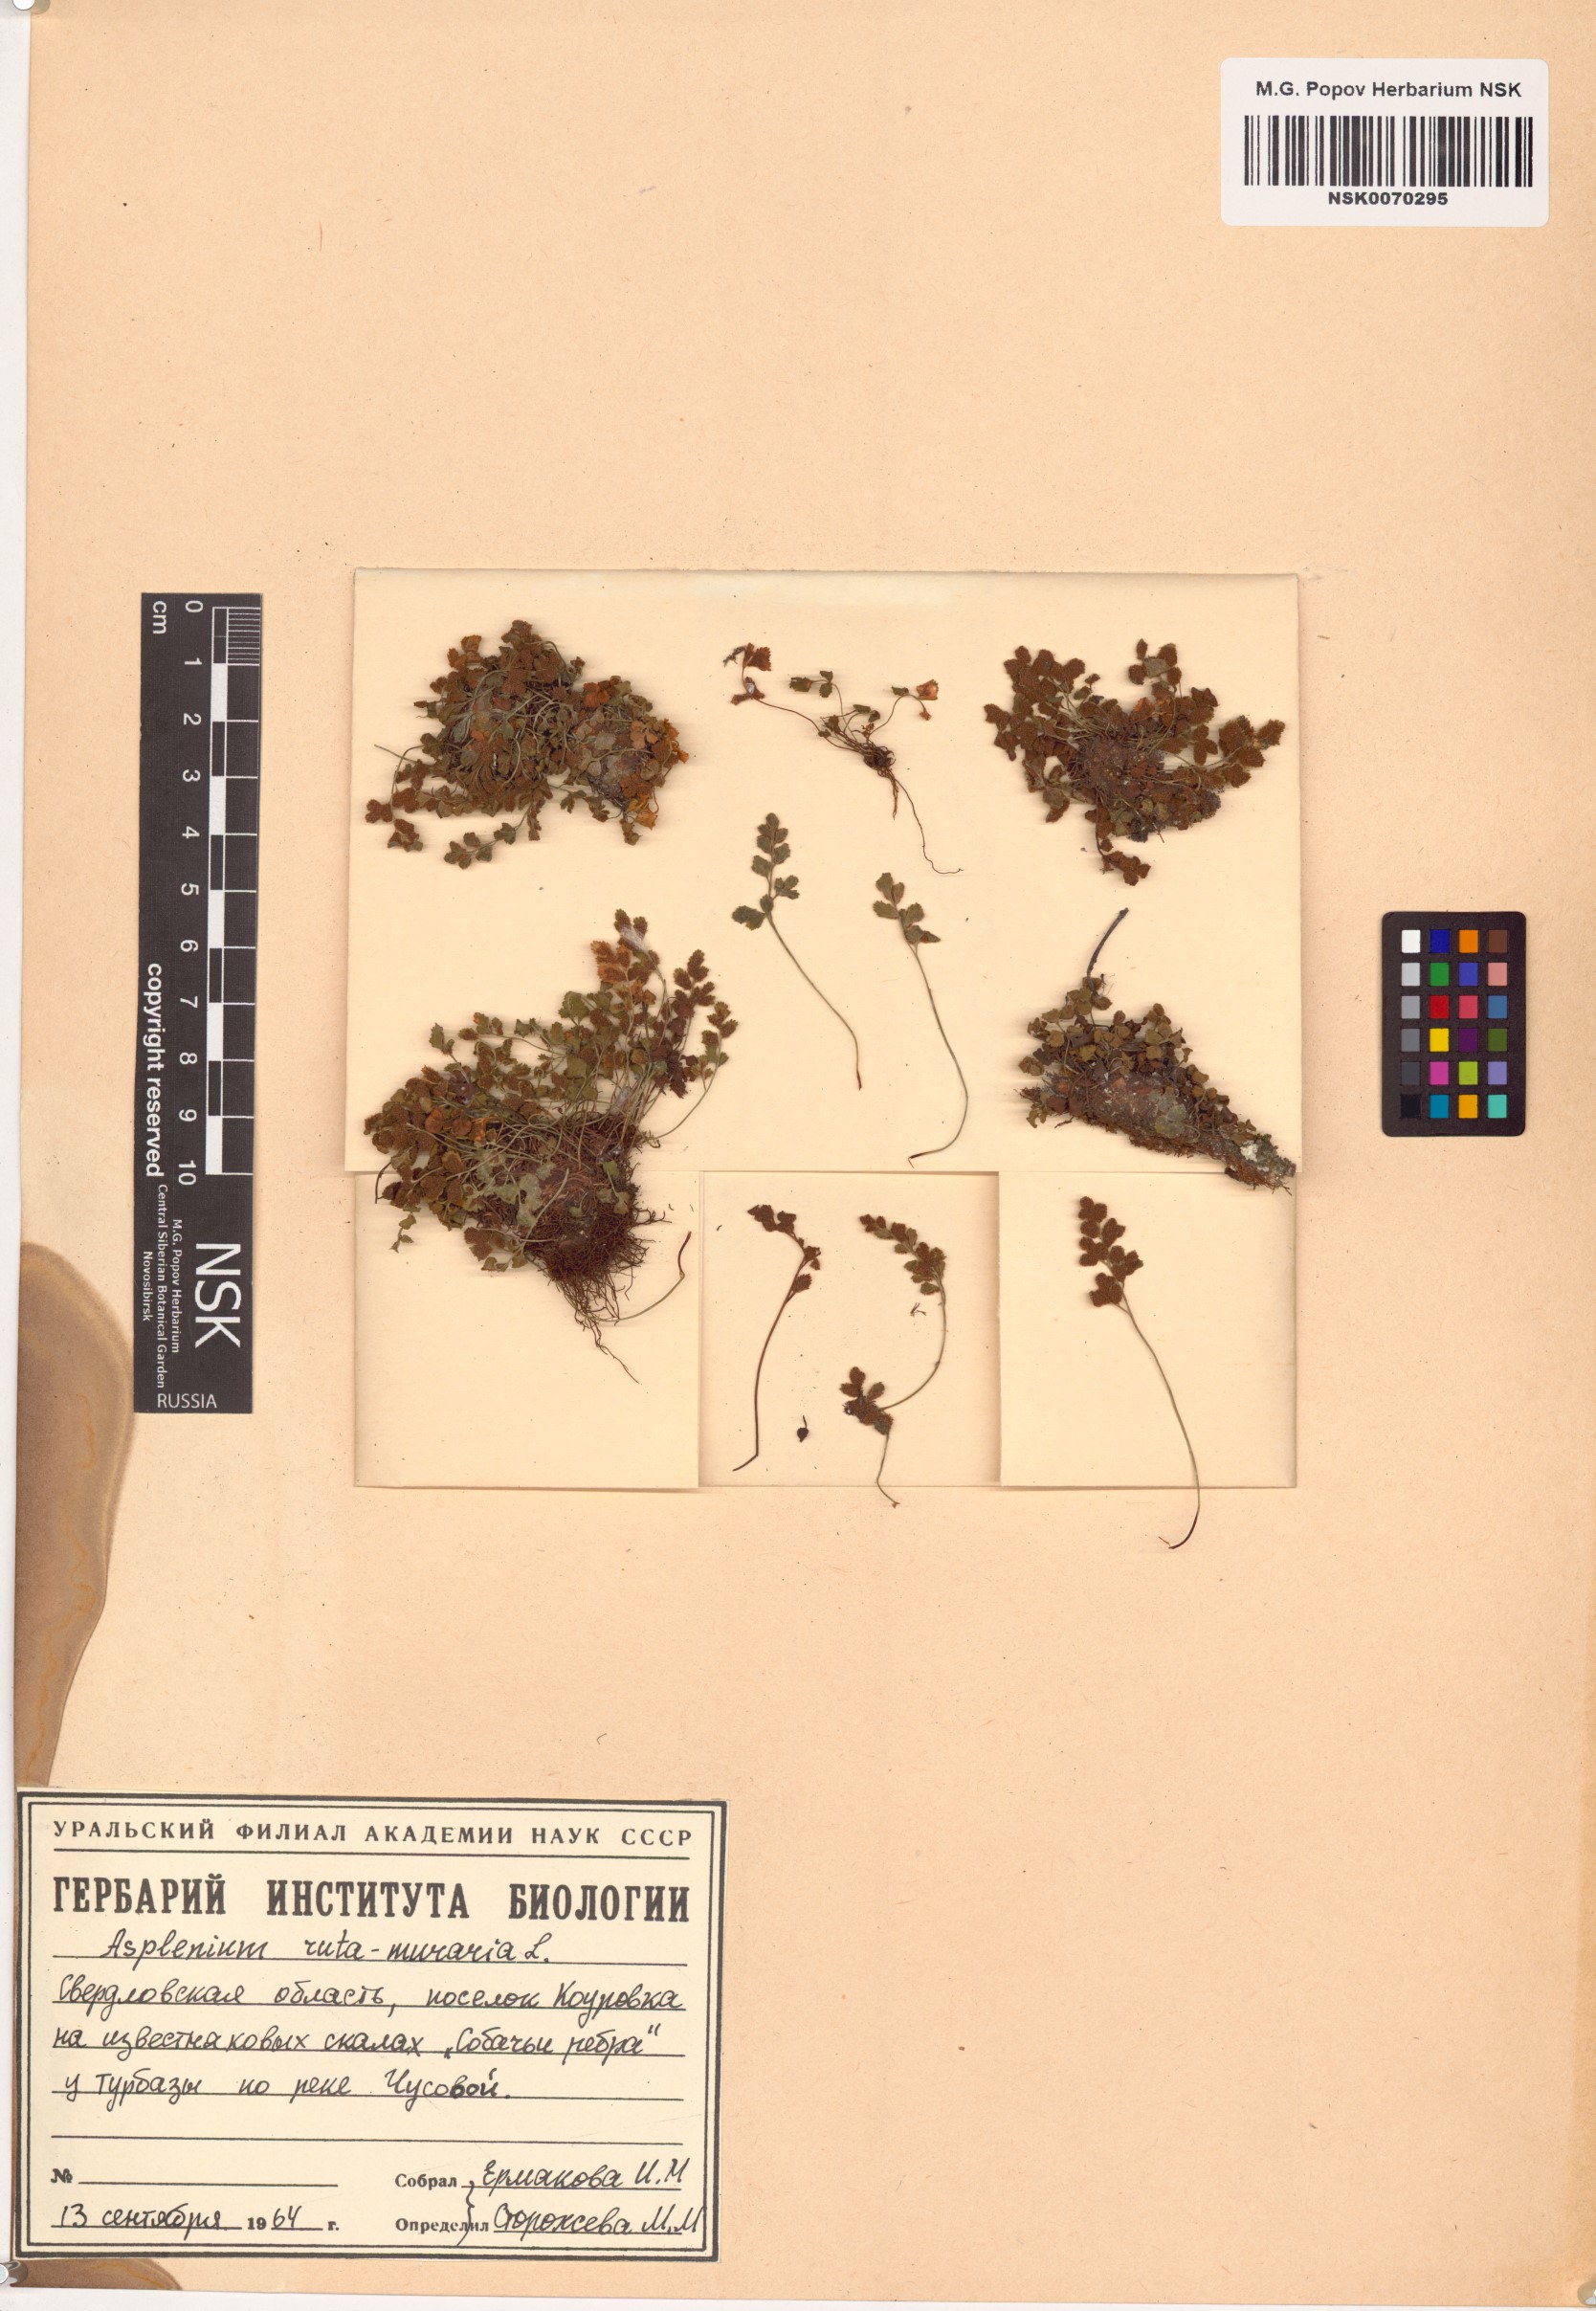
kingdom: Plantae
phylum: Tracheophyta
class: Polypodiopsida
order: Polypodiales
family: Aspleniaceae
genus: Asplenium
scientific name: Asplenium ruta-muraria
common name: Wall-rue
